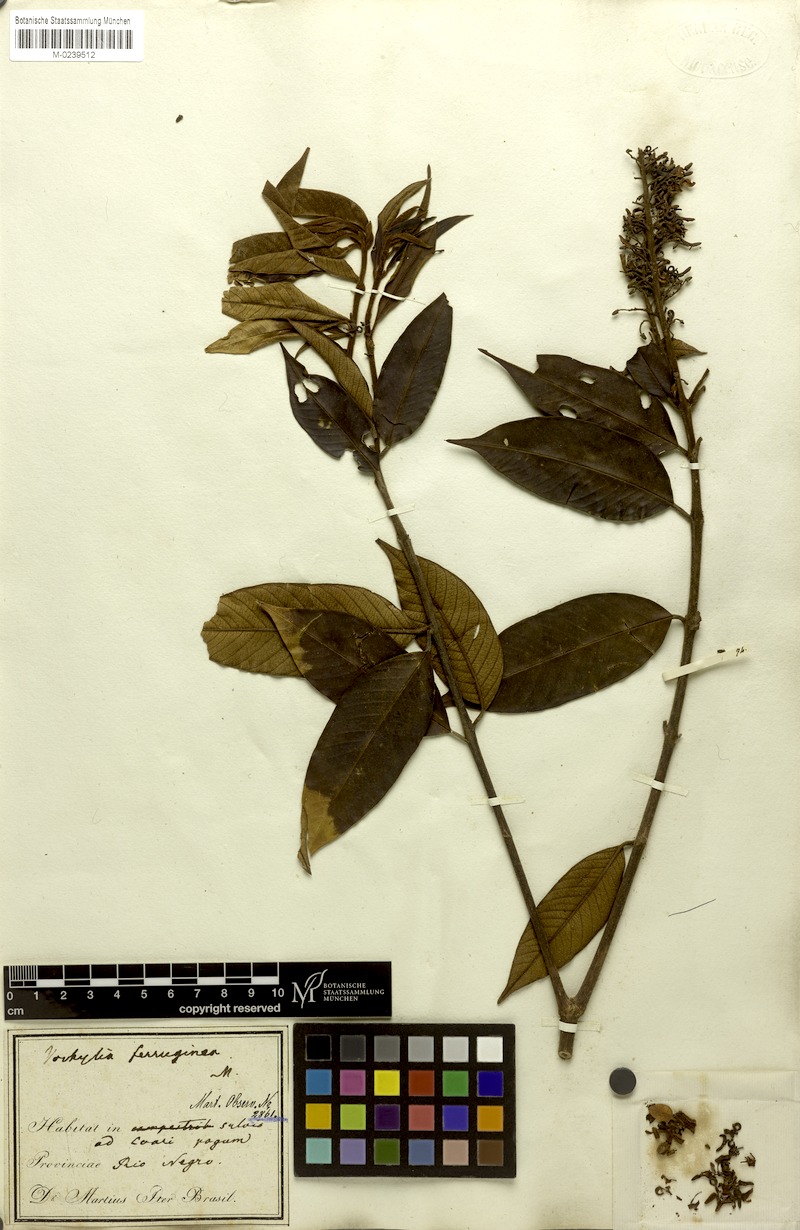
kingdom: Plantae
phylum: Tracheophyta
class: Magnoliopsida
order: Myrtales
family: Vochysiaceae
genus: Vochysia
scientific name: Vochysia ferruginea
